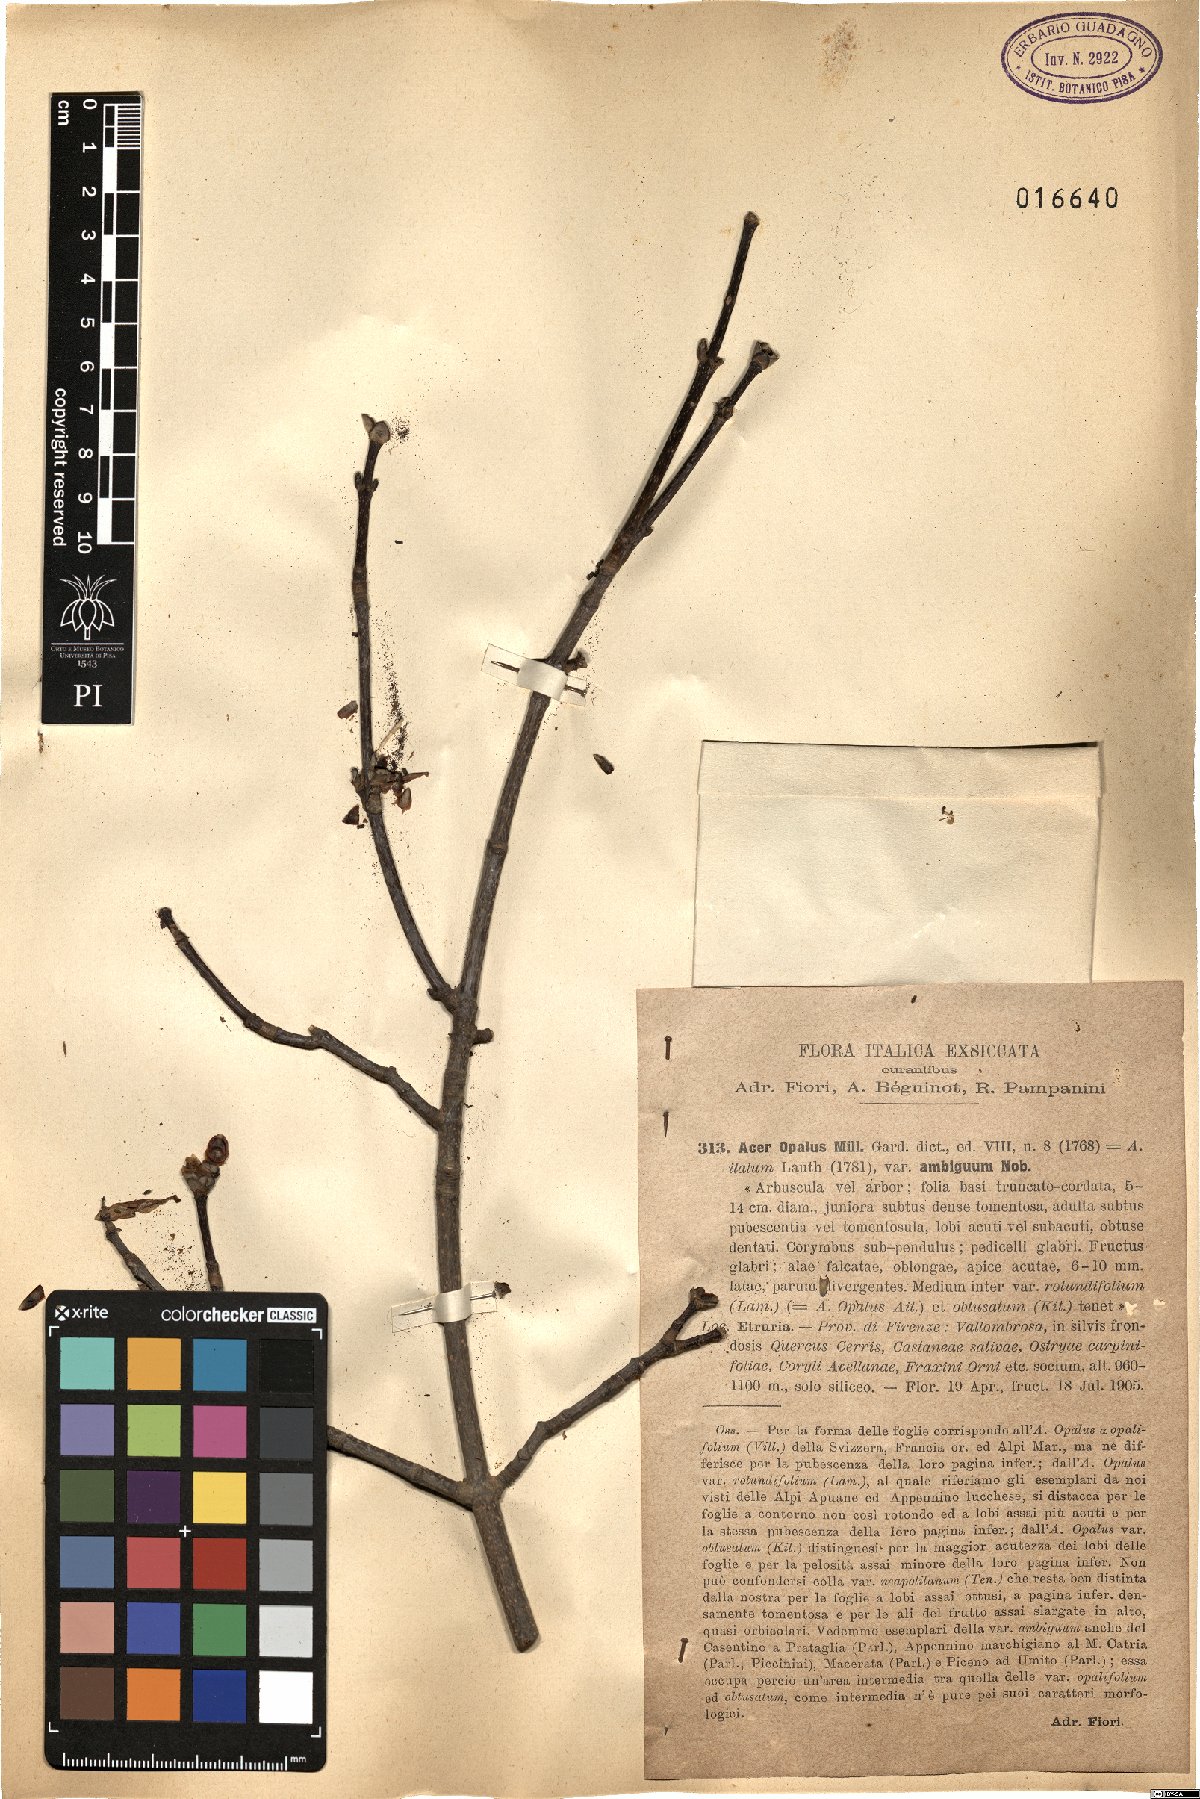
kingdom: Plantae
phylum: Tracheophyta
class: Magnoliopsida
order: Sapindales
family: Sapindaceae
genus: Acer
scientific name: Acer opalus
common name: Italian maple
